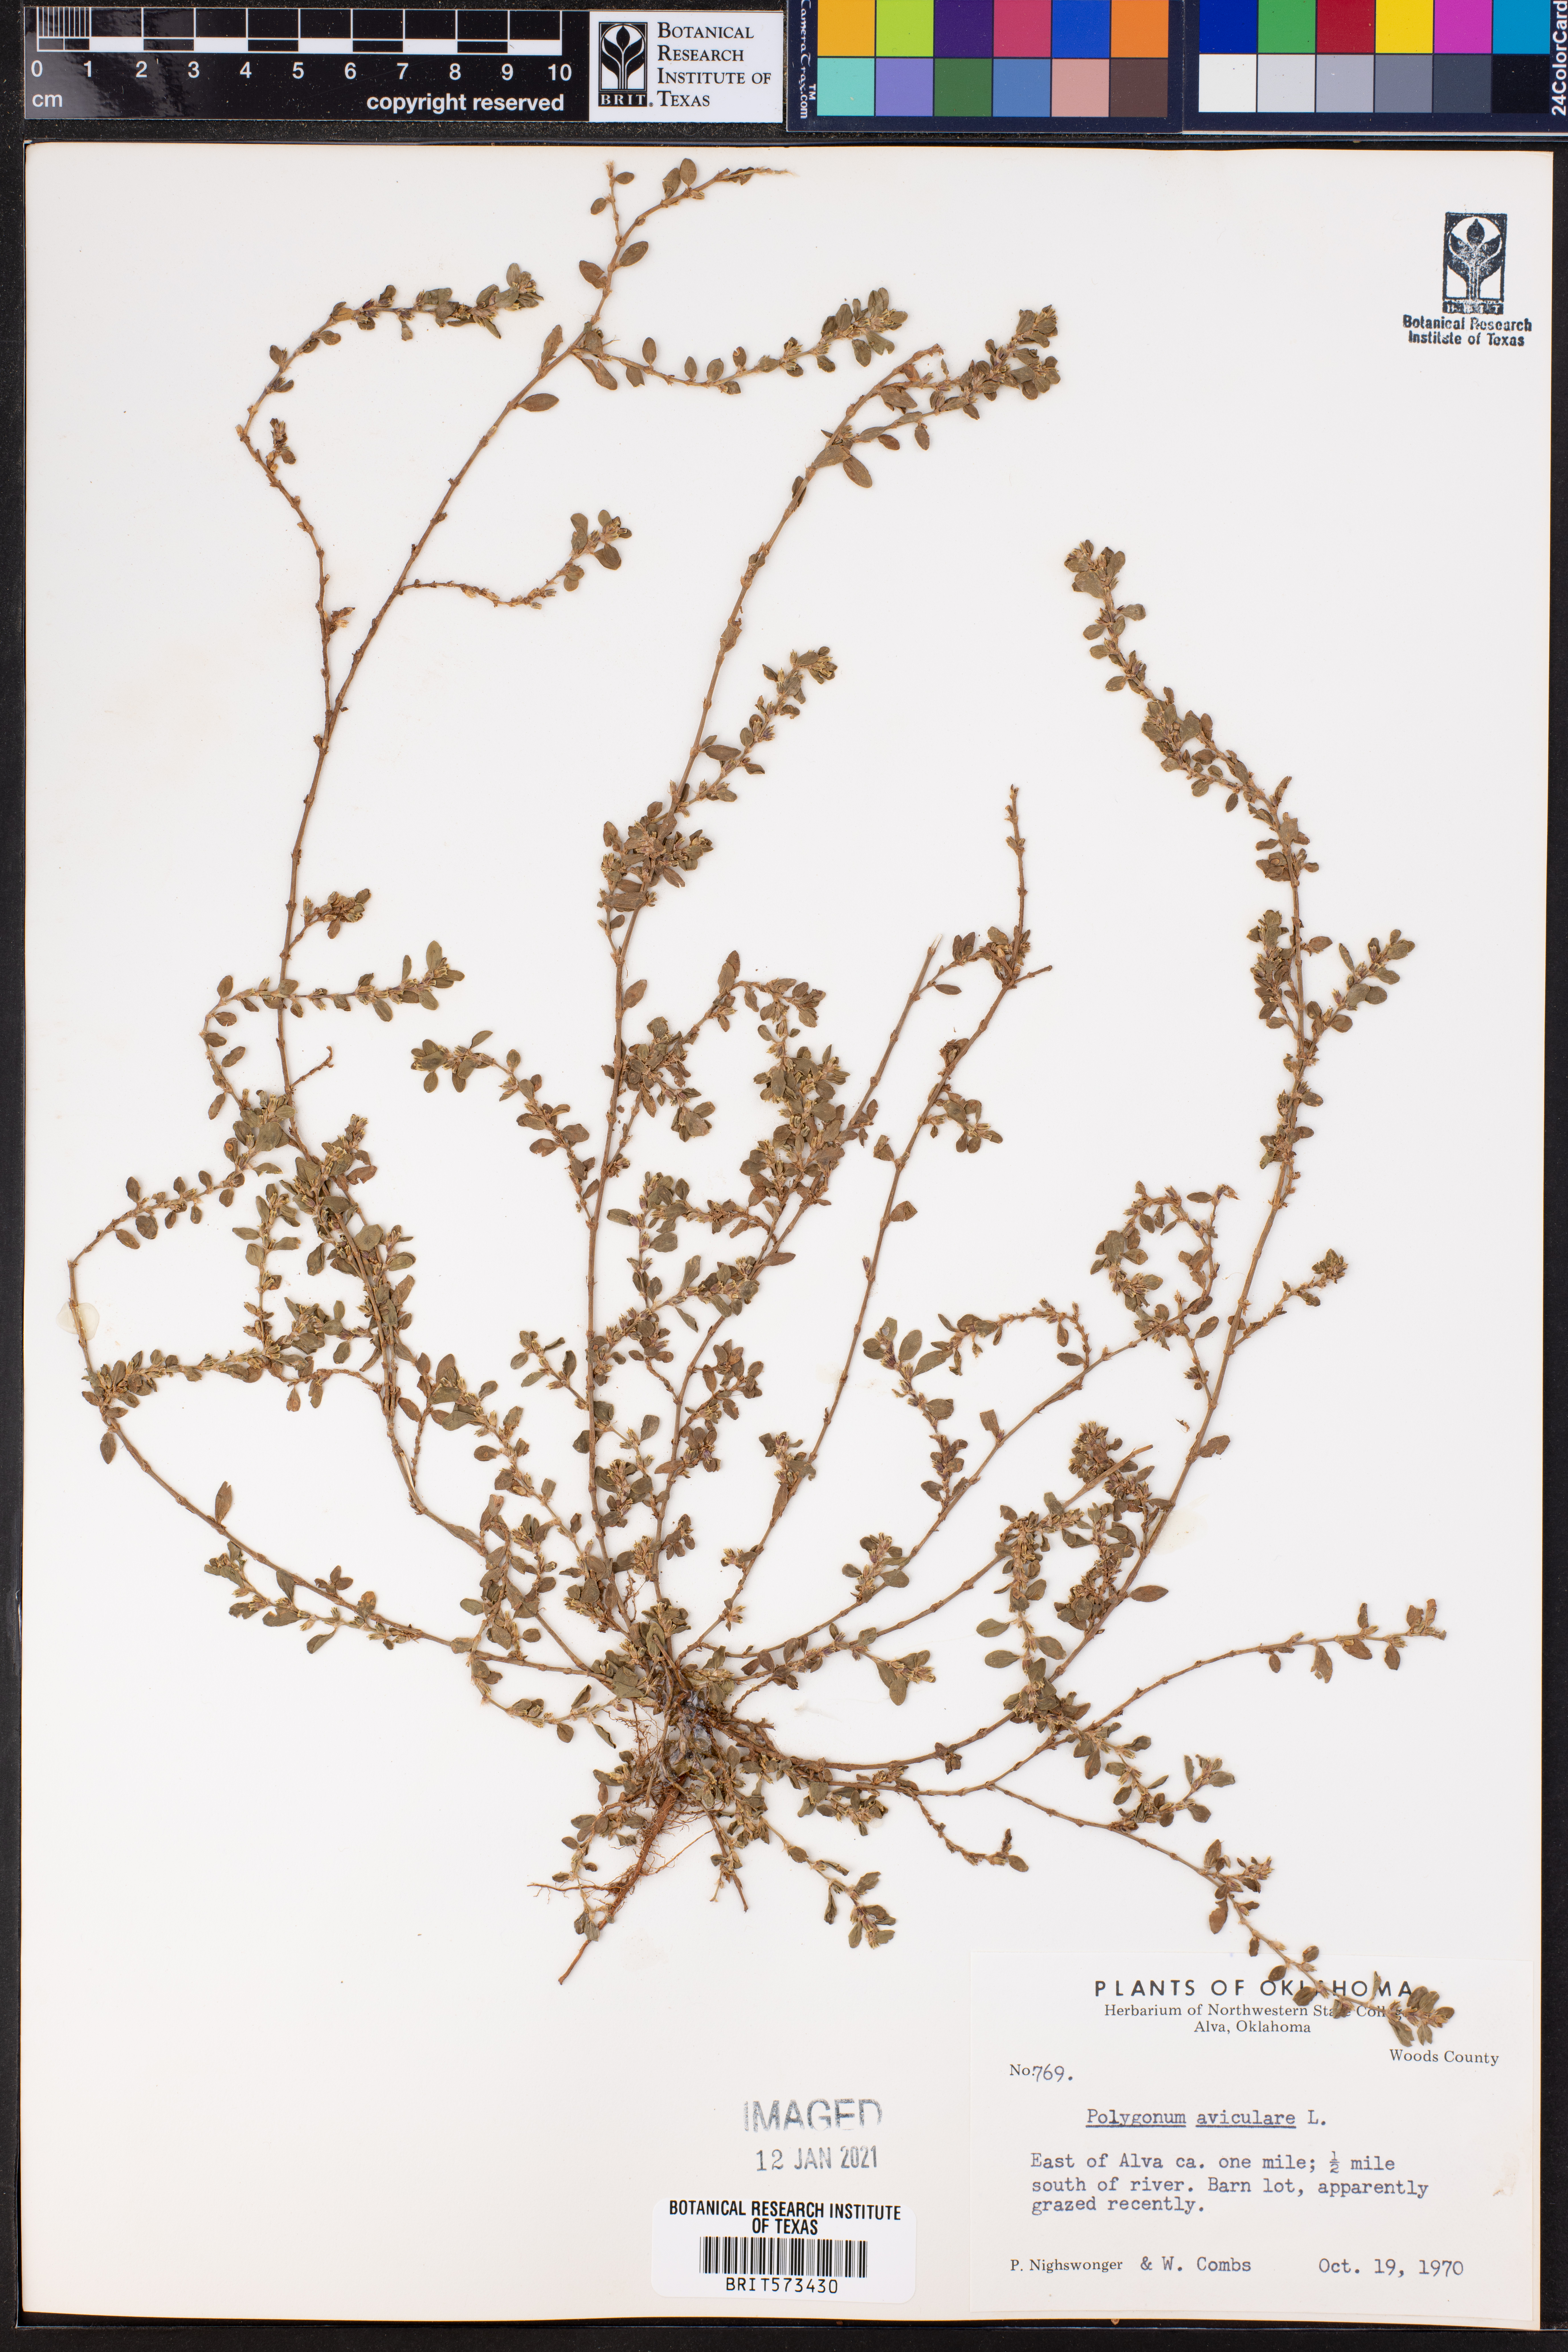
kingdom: Plantae
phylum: Tracheophyta
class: Magnoliopsida
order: Caryophyllales
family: Polygonaceae
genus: Polygonum
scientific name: Polygonum aviculare
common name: Prostrate knotweed
